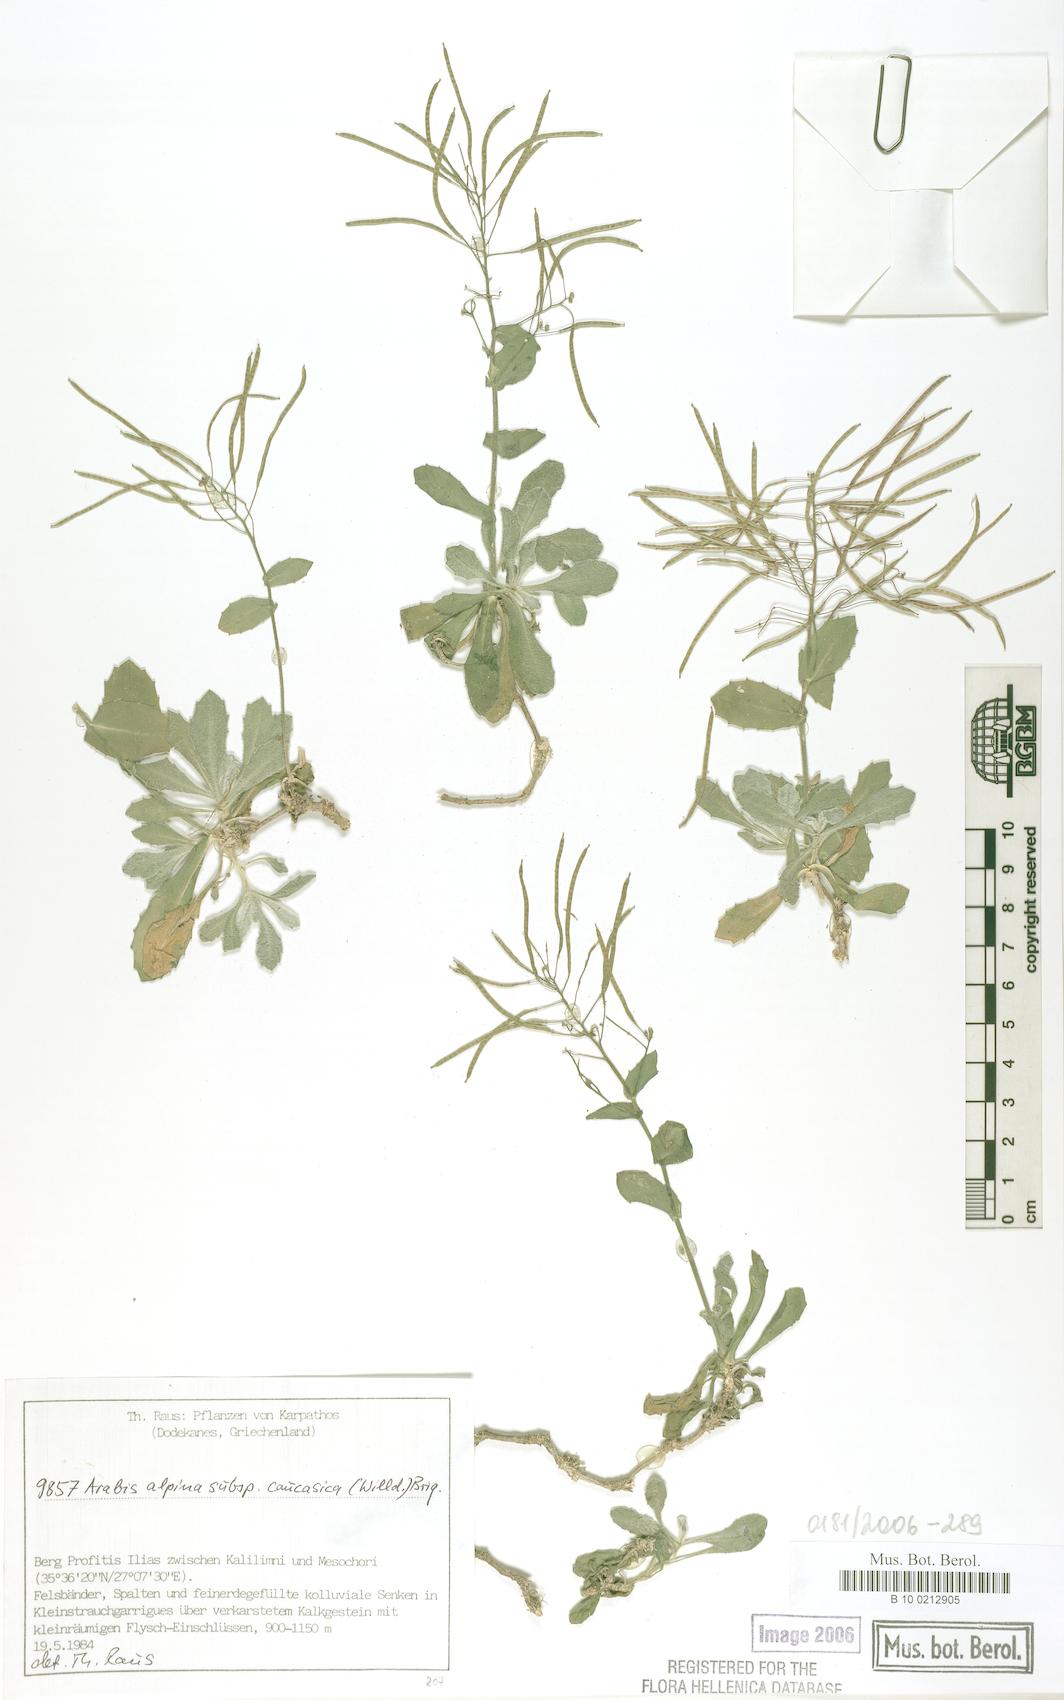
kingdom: Plantae
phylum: Tracheophyta
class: Magnoliopsida
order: Brassicales
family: Brassicaceae
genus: Arabis
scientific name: Arabis caucasica
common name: Gray rockcress
